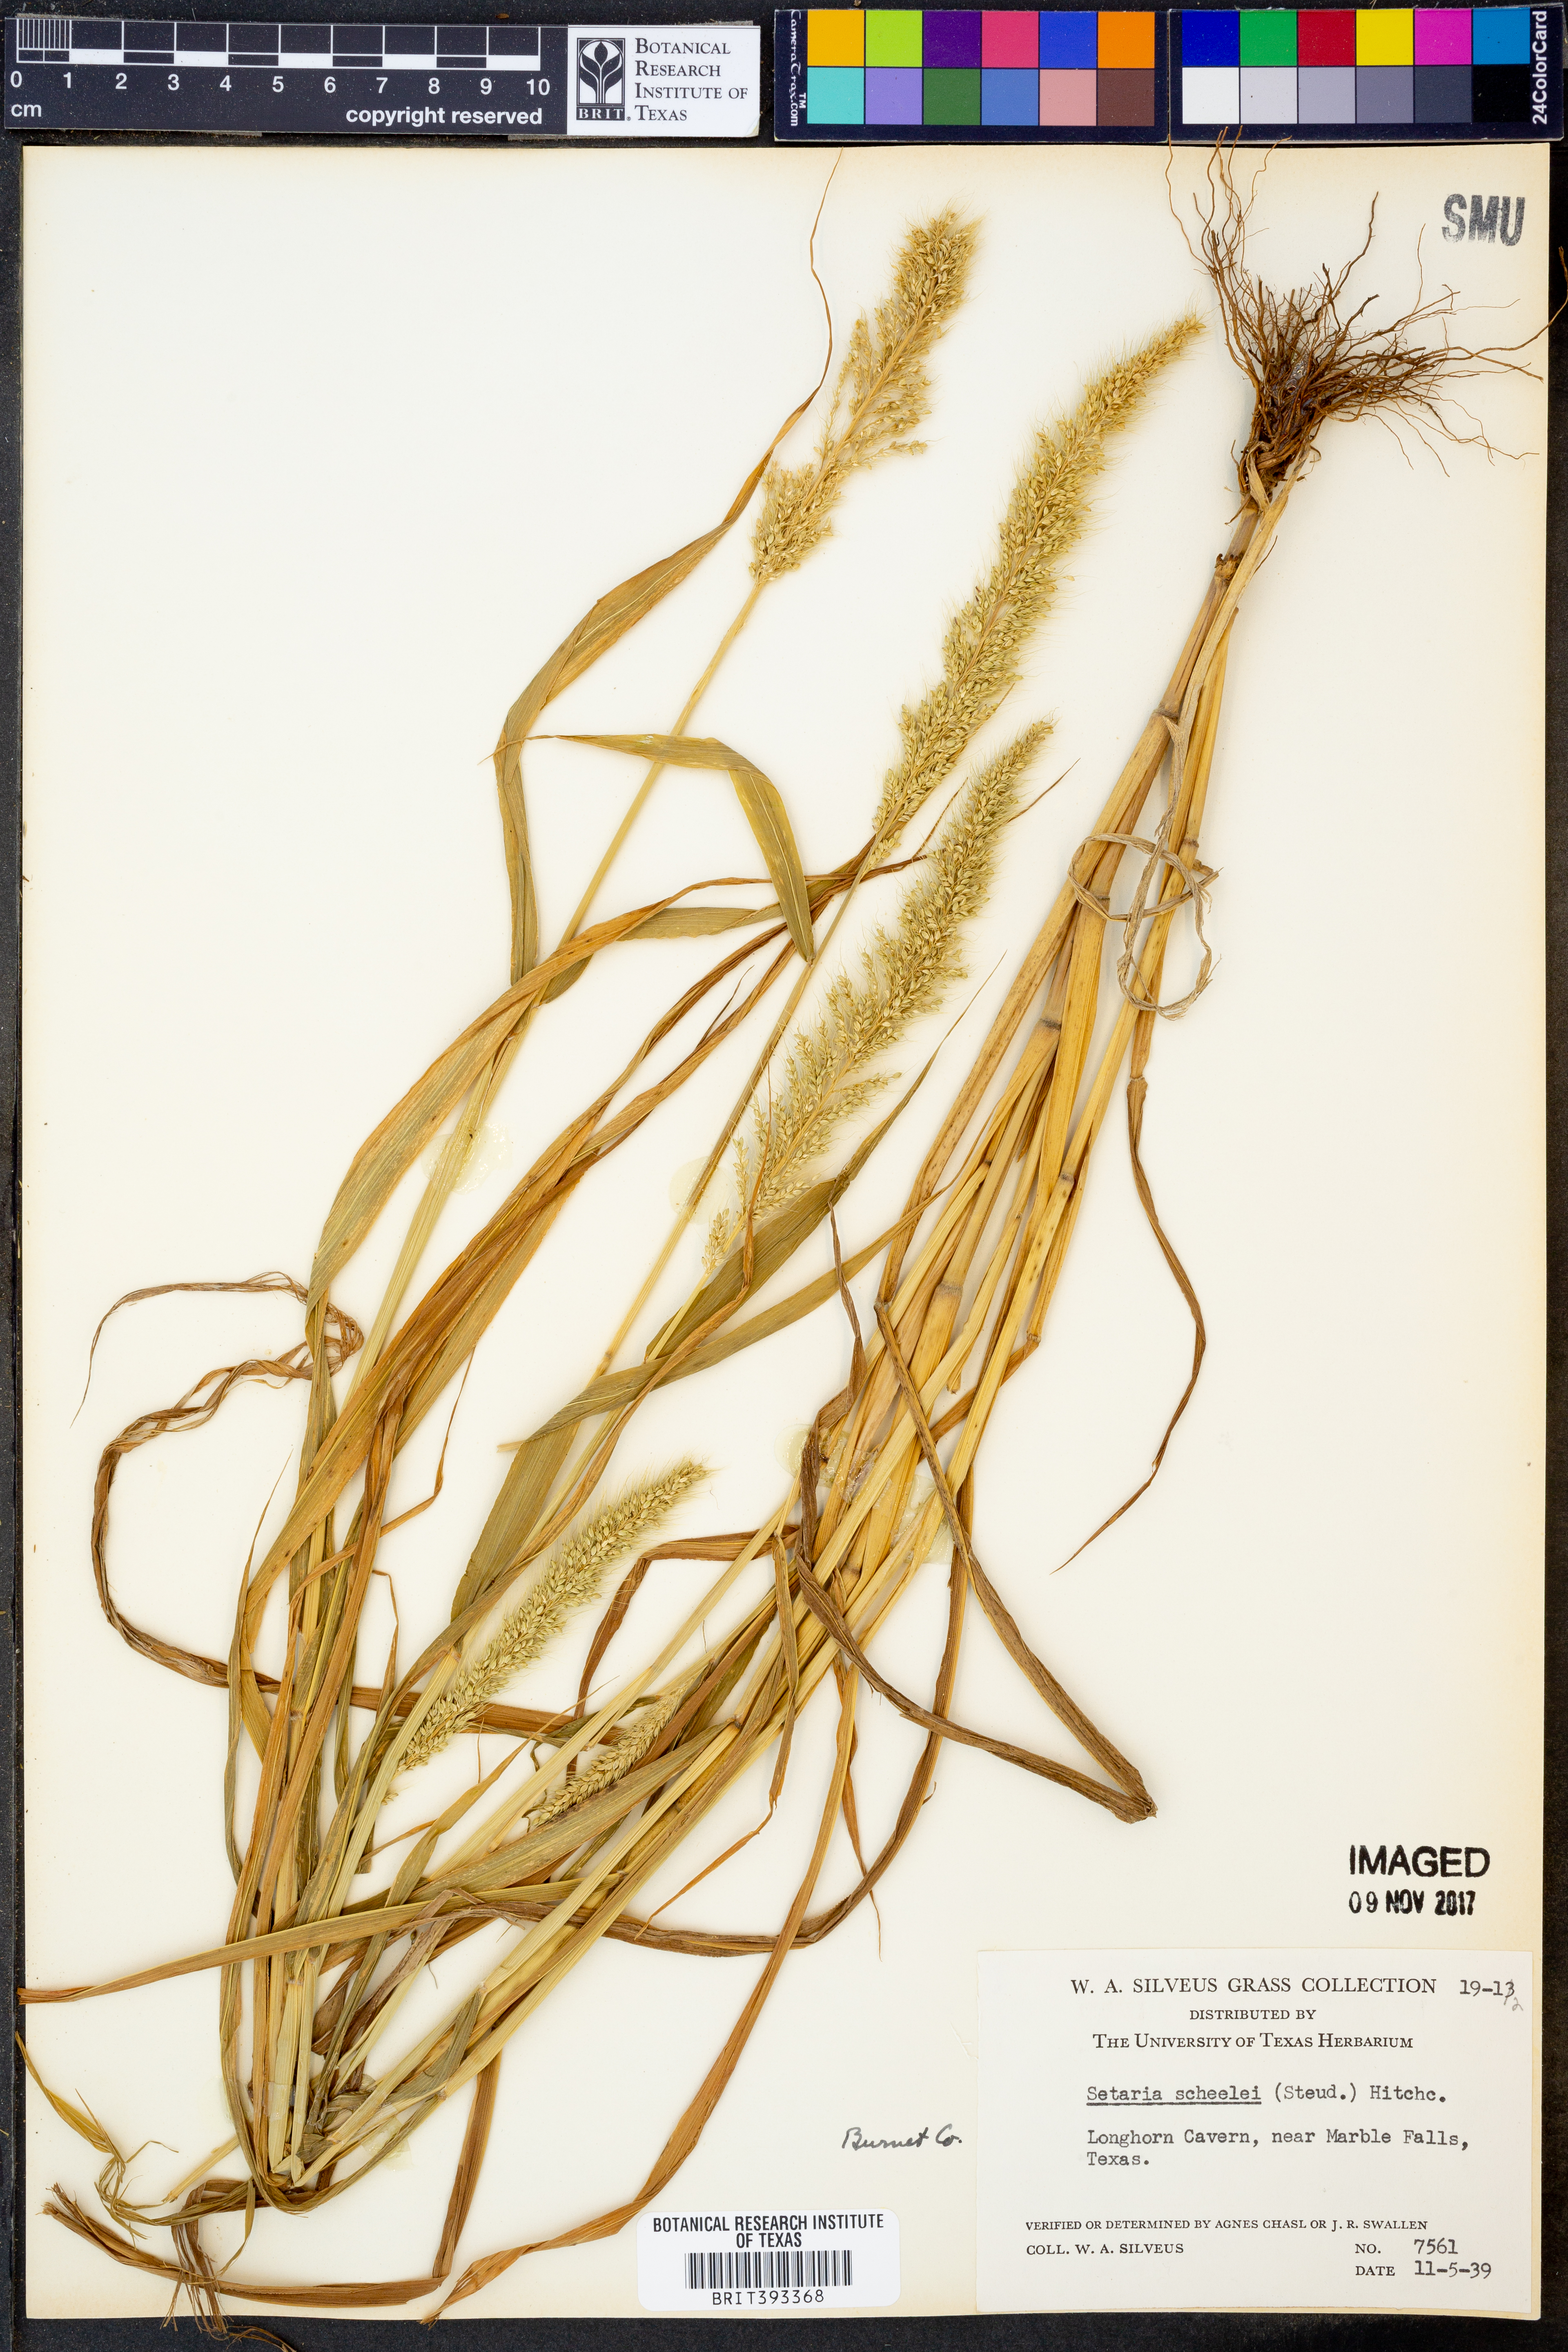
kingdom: Plantae
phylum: Tracheophyta
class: Liliopsida
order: Poales
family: Poaceae
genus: Setaria
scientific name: Setaria scheelei
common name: Southwestern bristle grass
